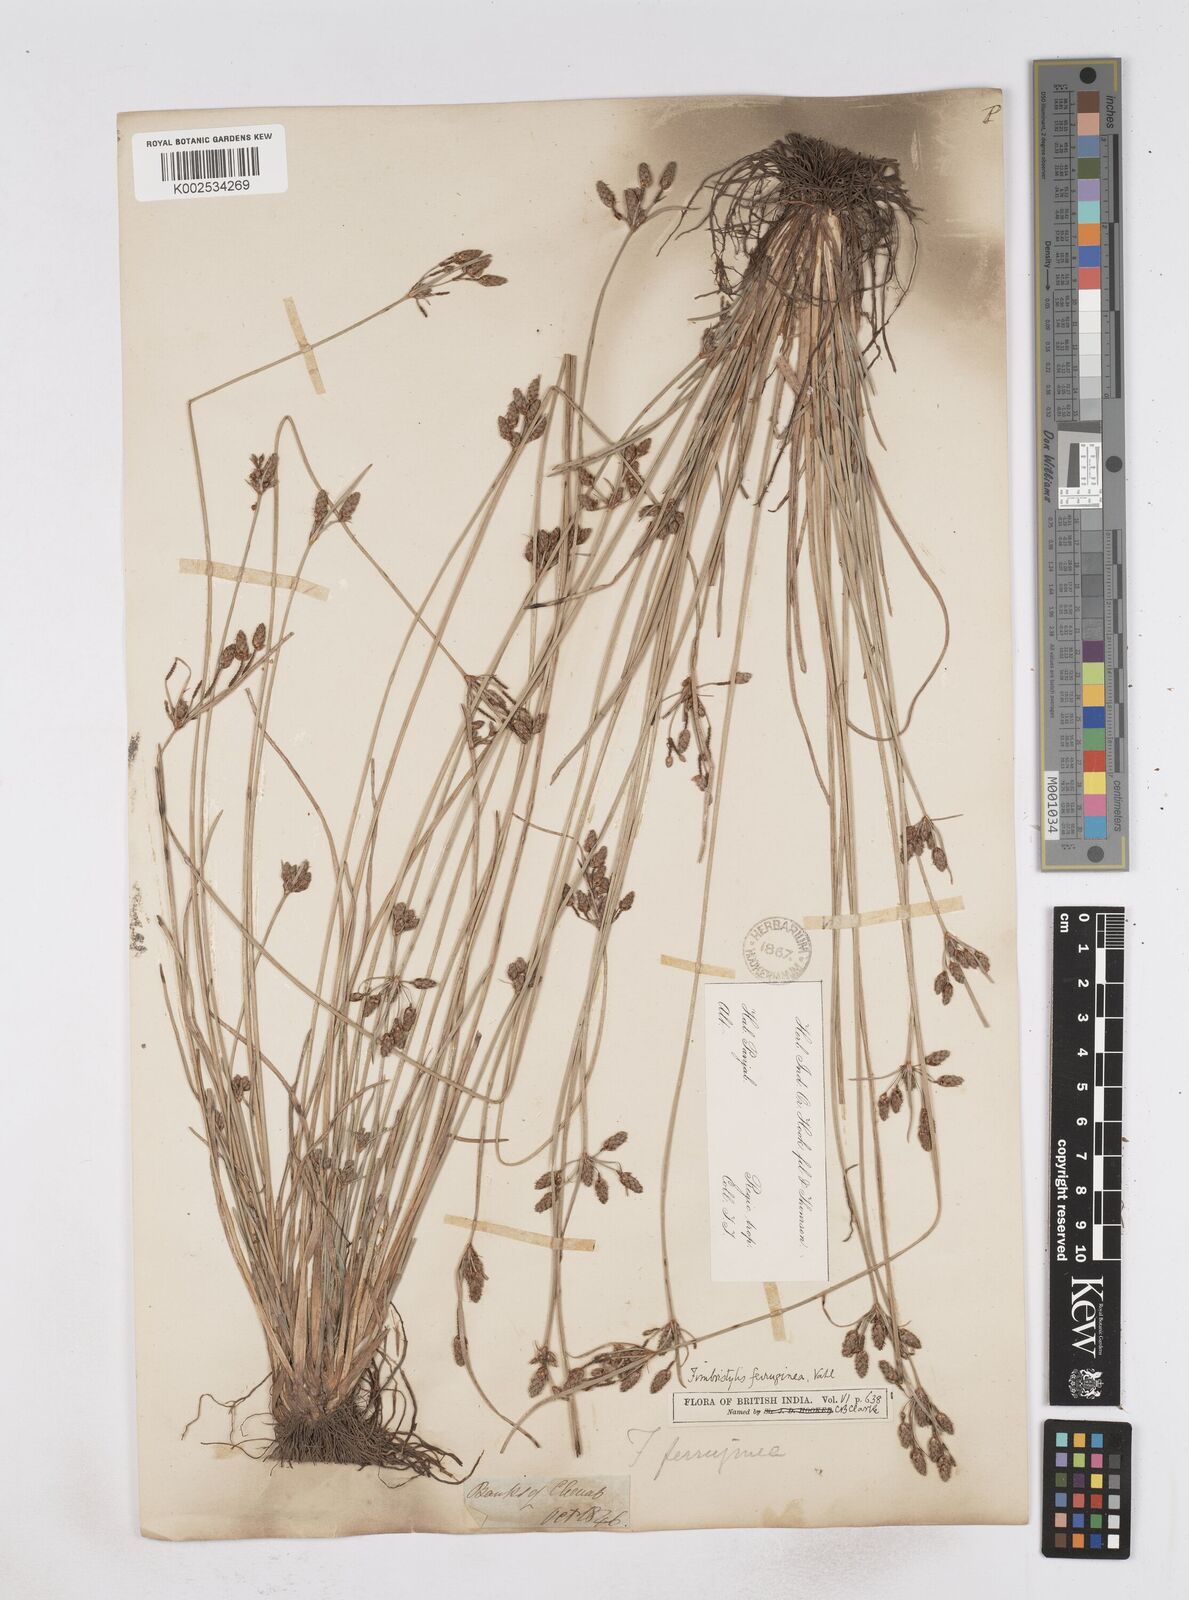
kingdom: Plantae
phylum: Tracheophyta
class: Liliopsida
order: Poales
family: Cyperaceae
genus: Fimbristylis
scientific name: Fimbristylis ferruginea
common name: West indian fimbry
